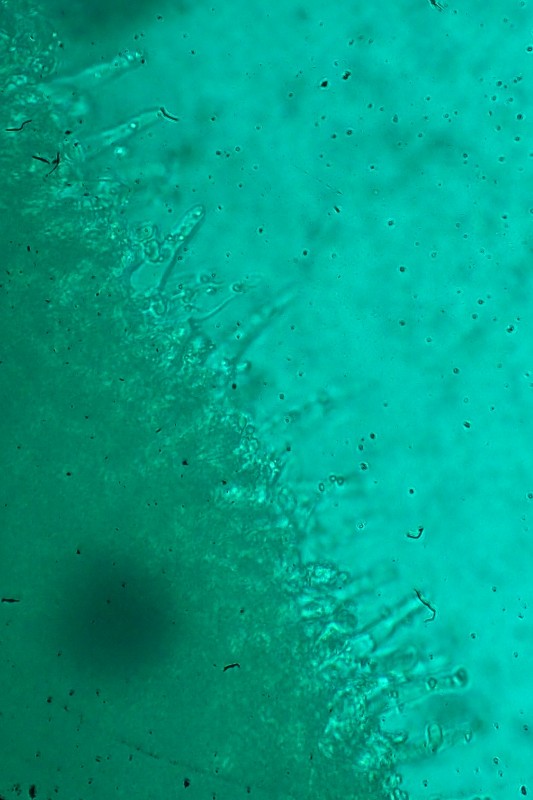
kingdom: Fungi
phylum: Basidiomycota
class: Agaricomycetes
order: Agaricales
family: Mycenaceae
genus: Mycena
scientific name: Mycena leptocephala
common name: klor-huesvamp
